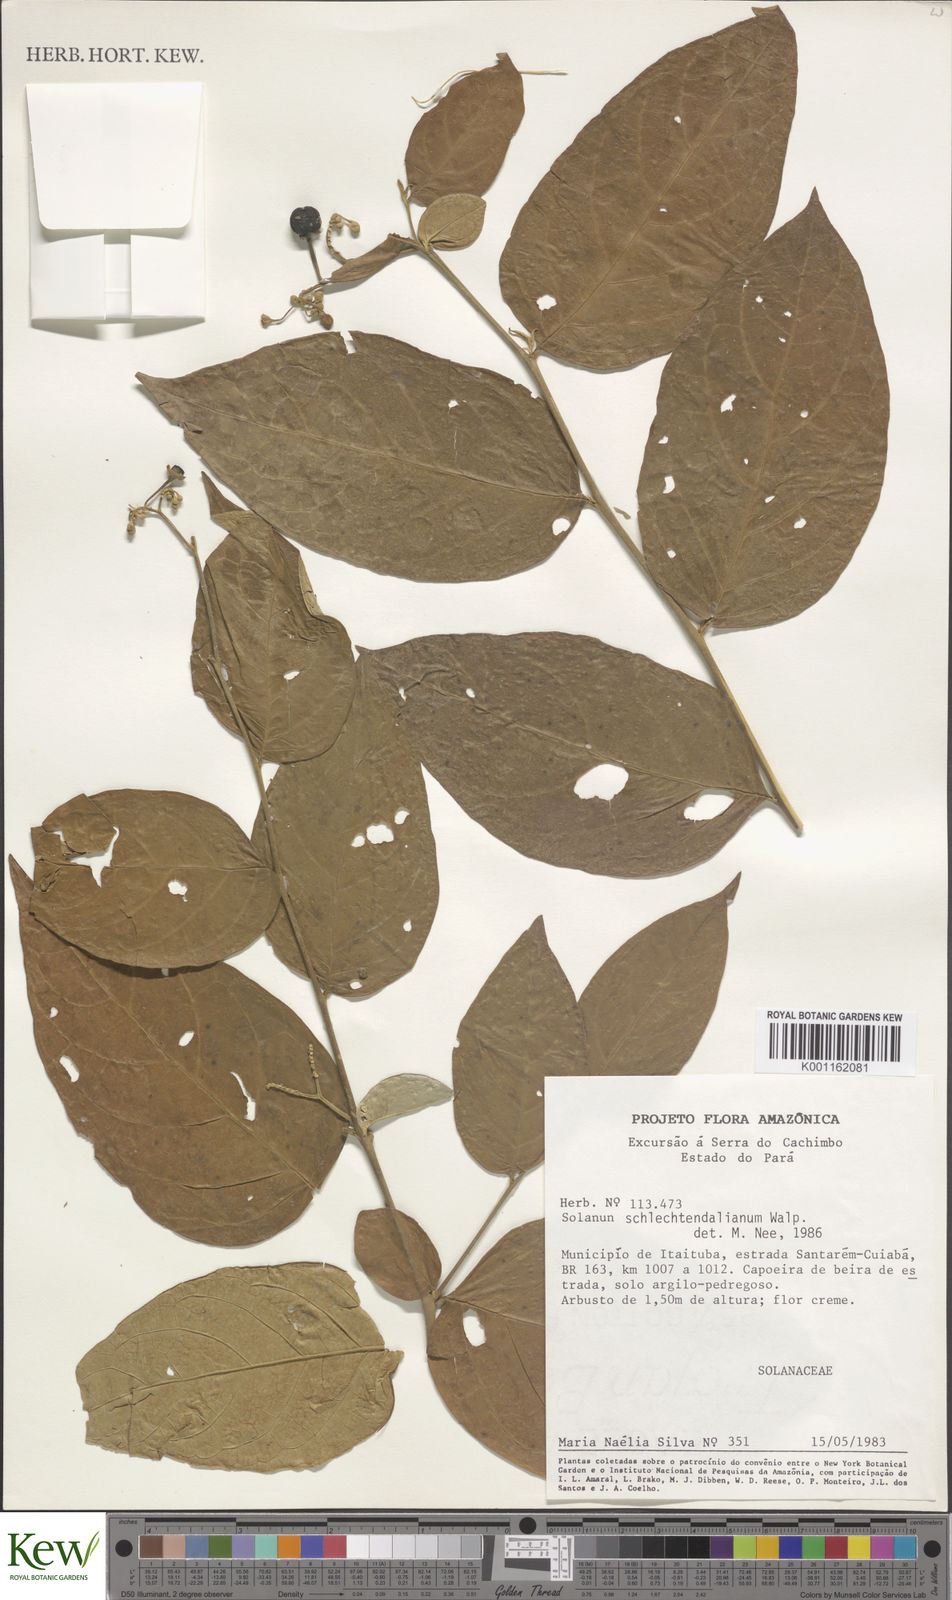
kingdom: Plantae
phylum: Tracheophyta
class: Magnoliopsida
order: Solanales
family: Solanaceae
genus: Solanum
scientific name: Solanum schlechtendalianum
